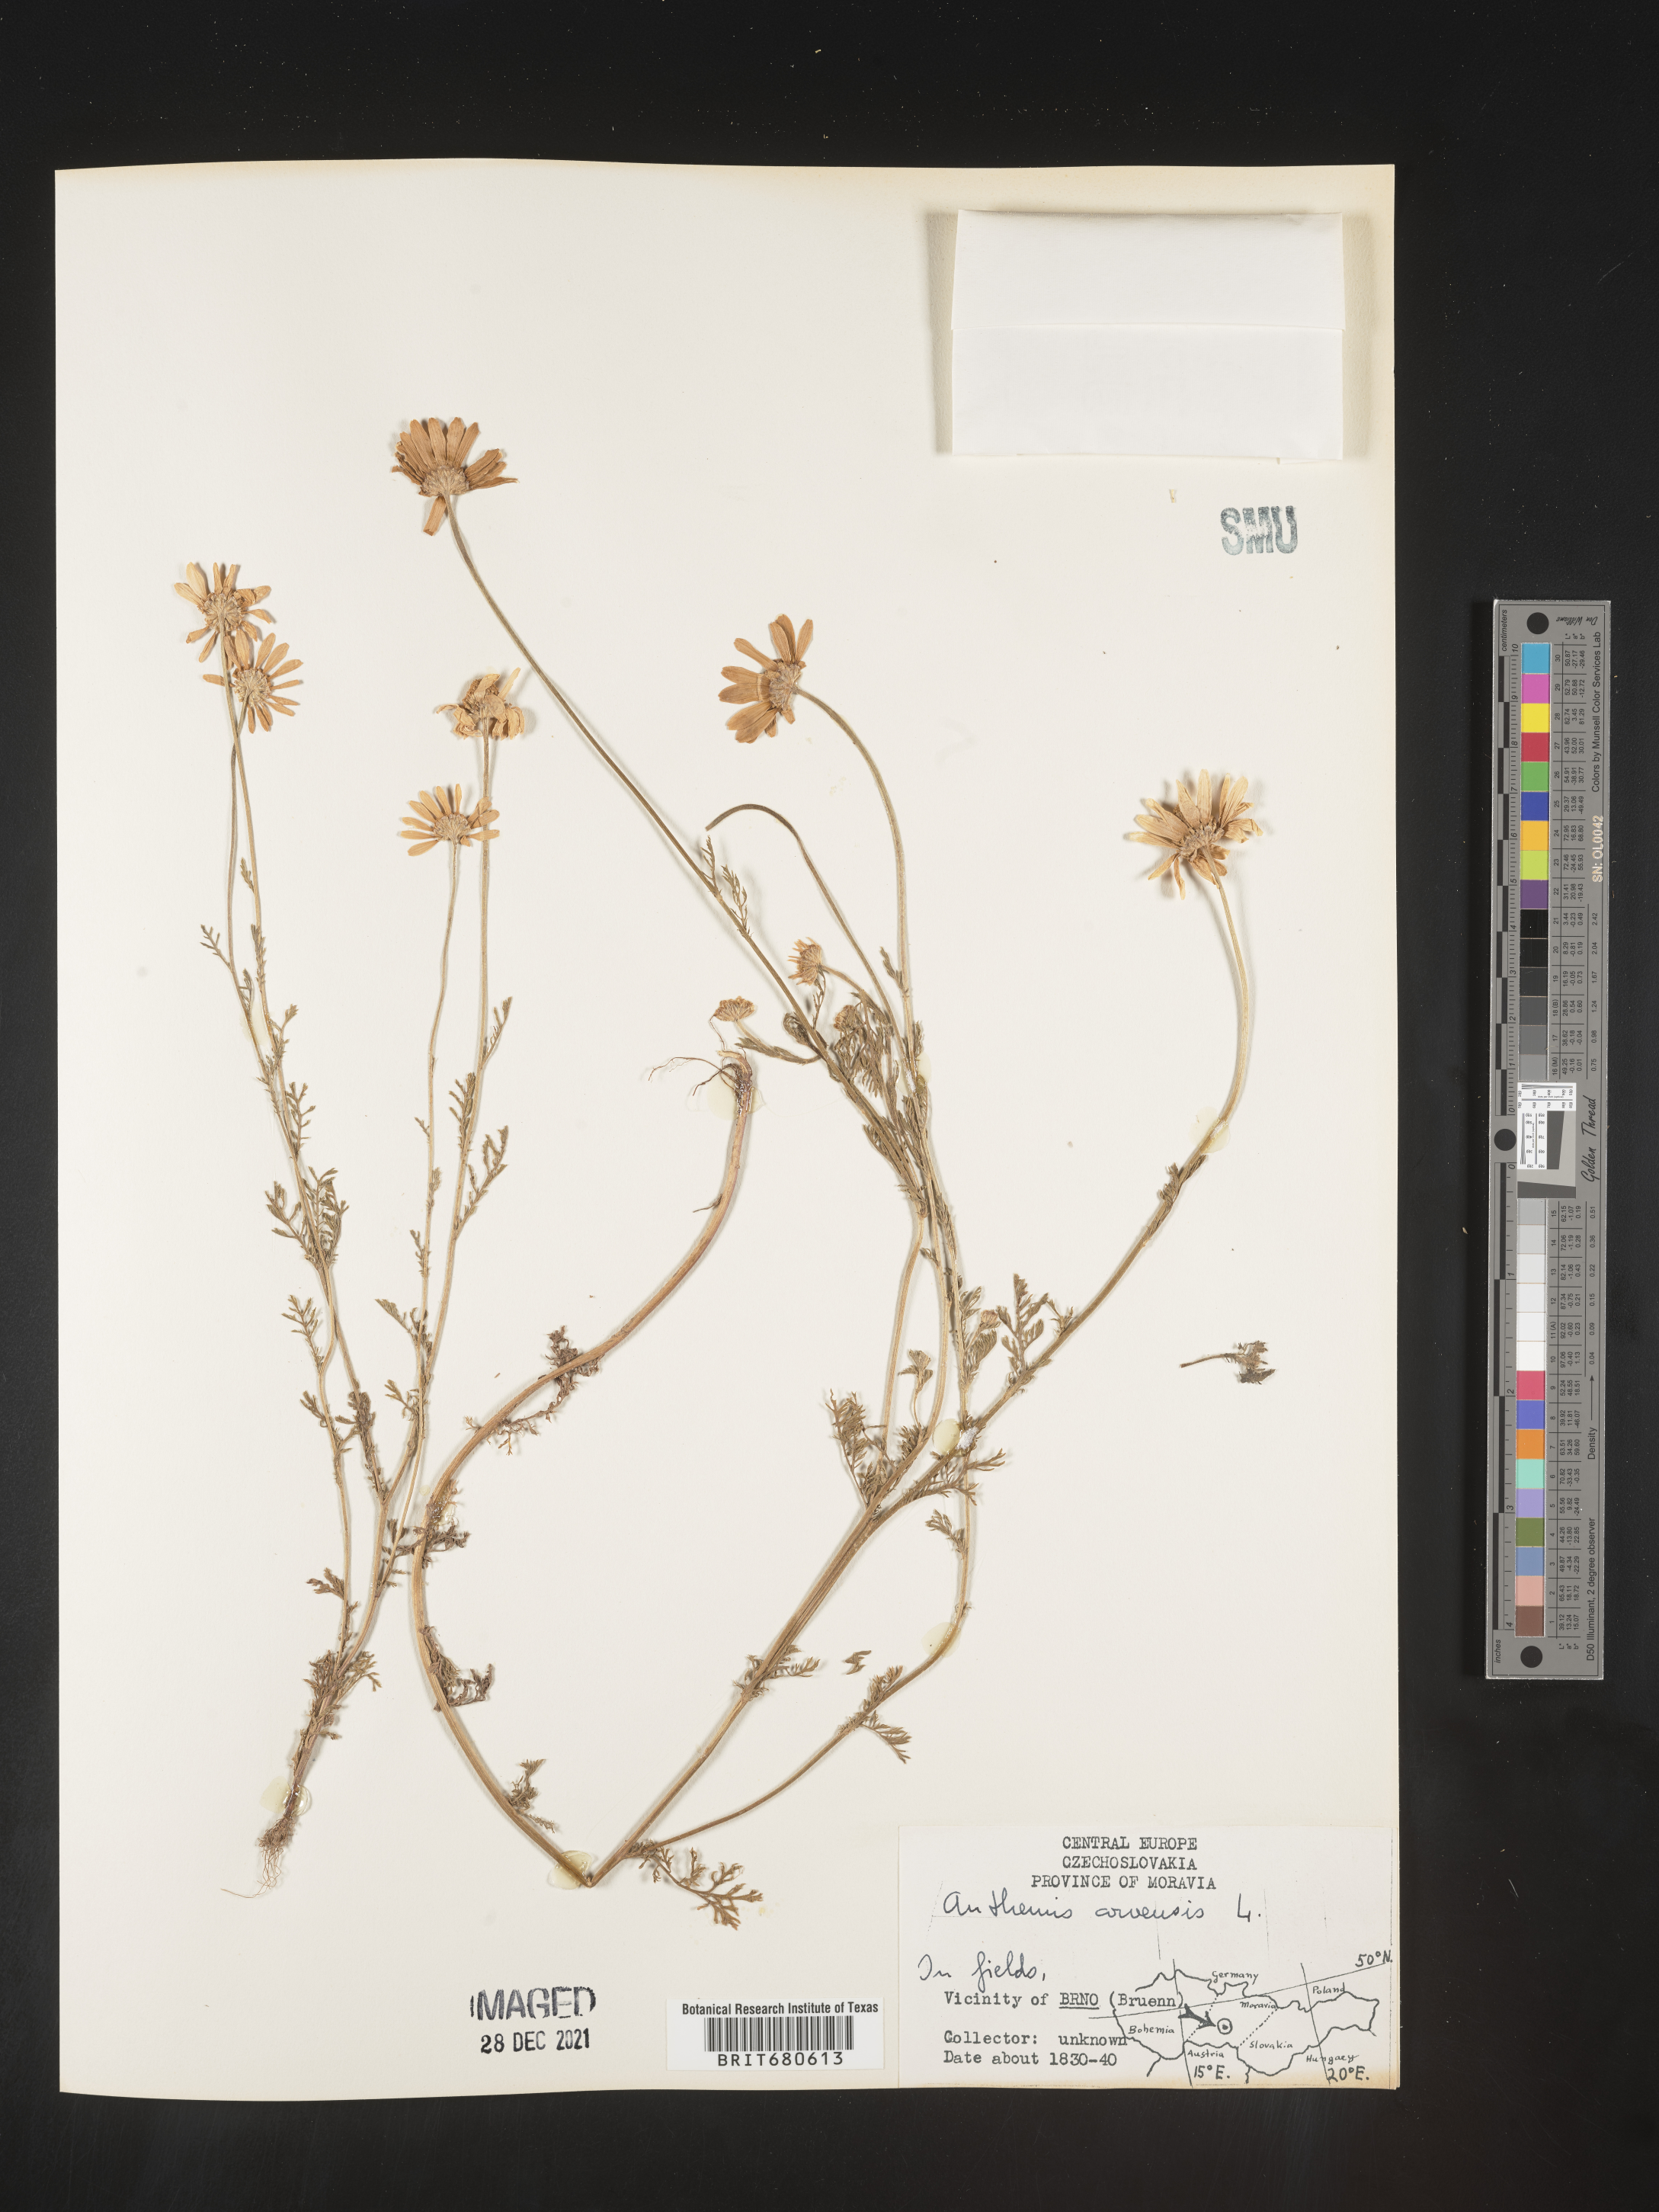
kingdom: Plantae
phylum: Tracheophyta
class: Magnoliopsida
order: Asterales
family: Asteraceae
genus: Anthemis
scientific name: Anthemis
